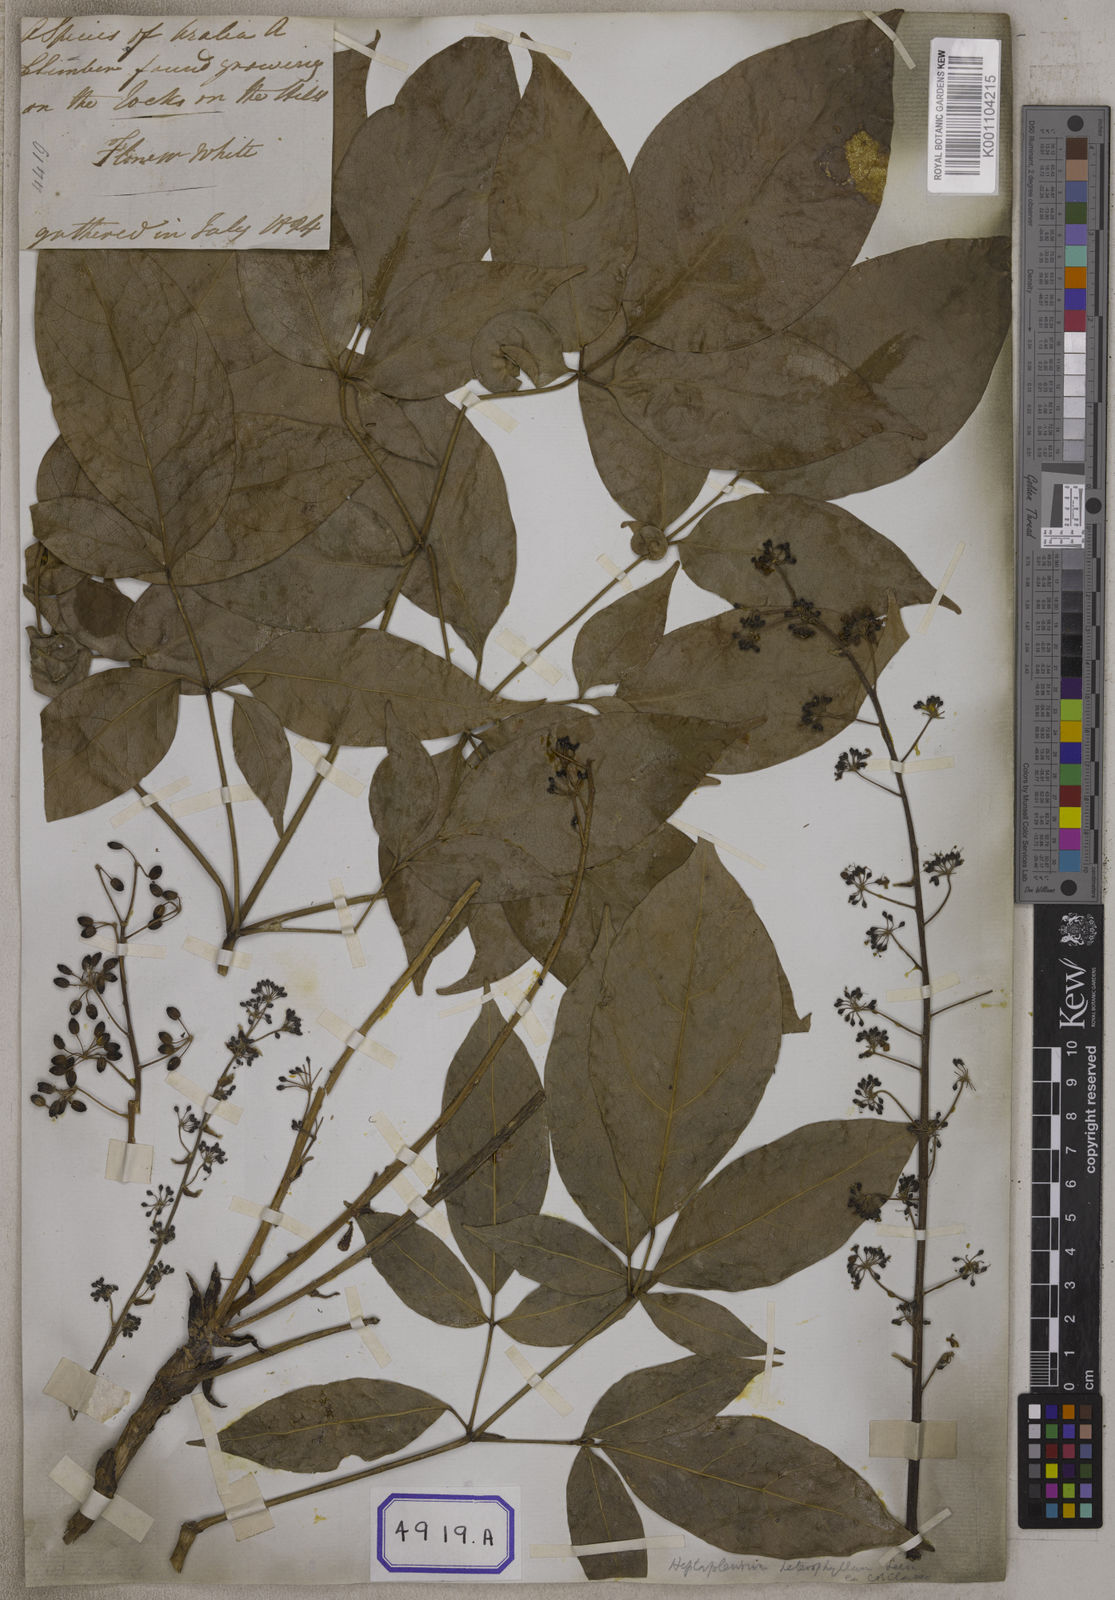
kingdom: Plantae
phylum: Tracheophyta
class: Magnoliopsida
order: Apiales
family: Araliaceae
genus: Hedera
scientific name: Hedera
